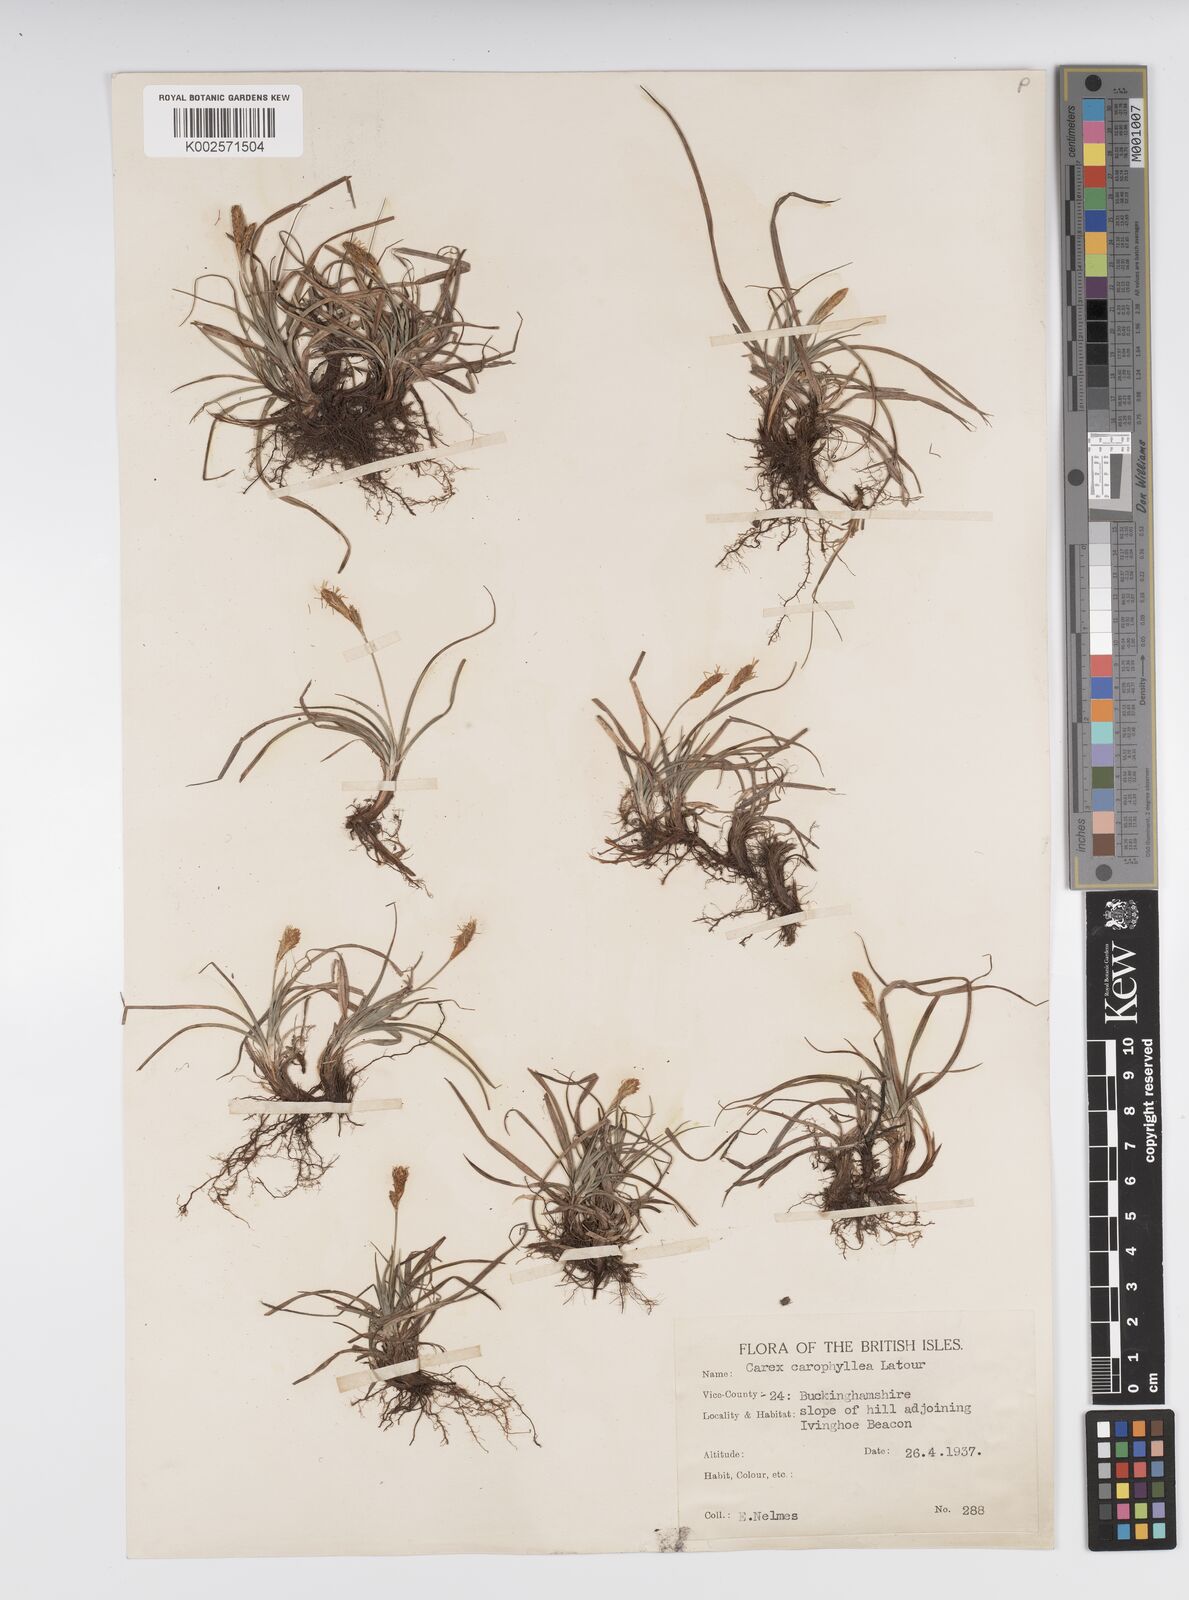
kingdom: Plantae
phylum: Tracheophyta
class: Liliopsida
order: Poales
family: Cyperaceae
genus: Carex
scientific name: Carex caryophyllea
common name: Spring sedge
